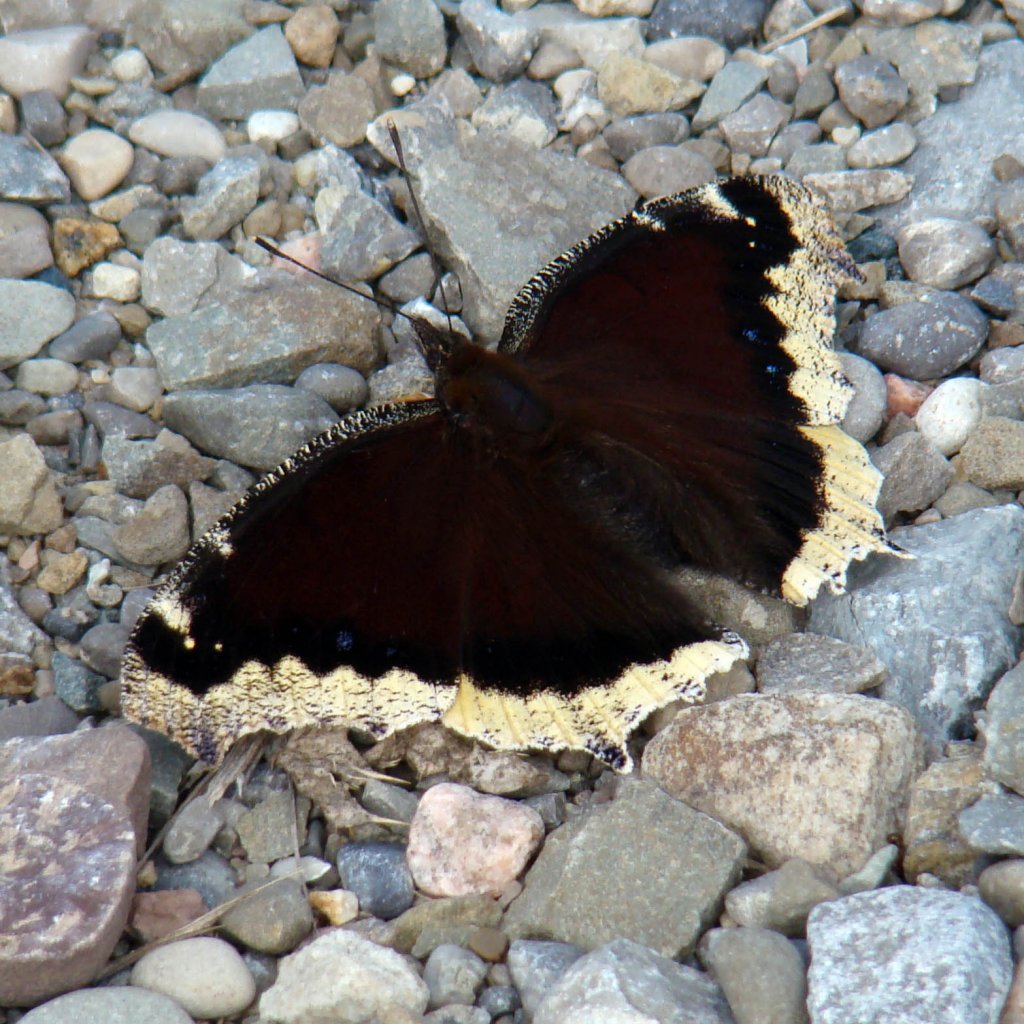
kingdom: Animalia
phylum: Arthropoda
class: Insecta
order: Lepidoptera
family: Nymphalidae
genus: Nymphalis
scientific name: Nymphalis antiopa
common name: Mourning Cloak
